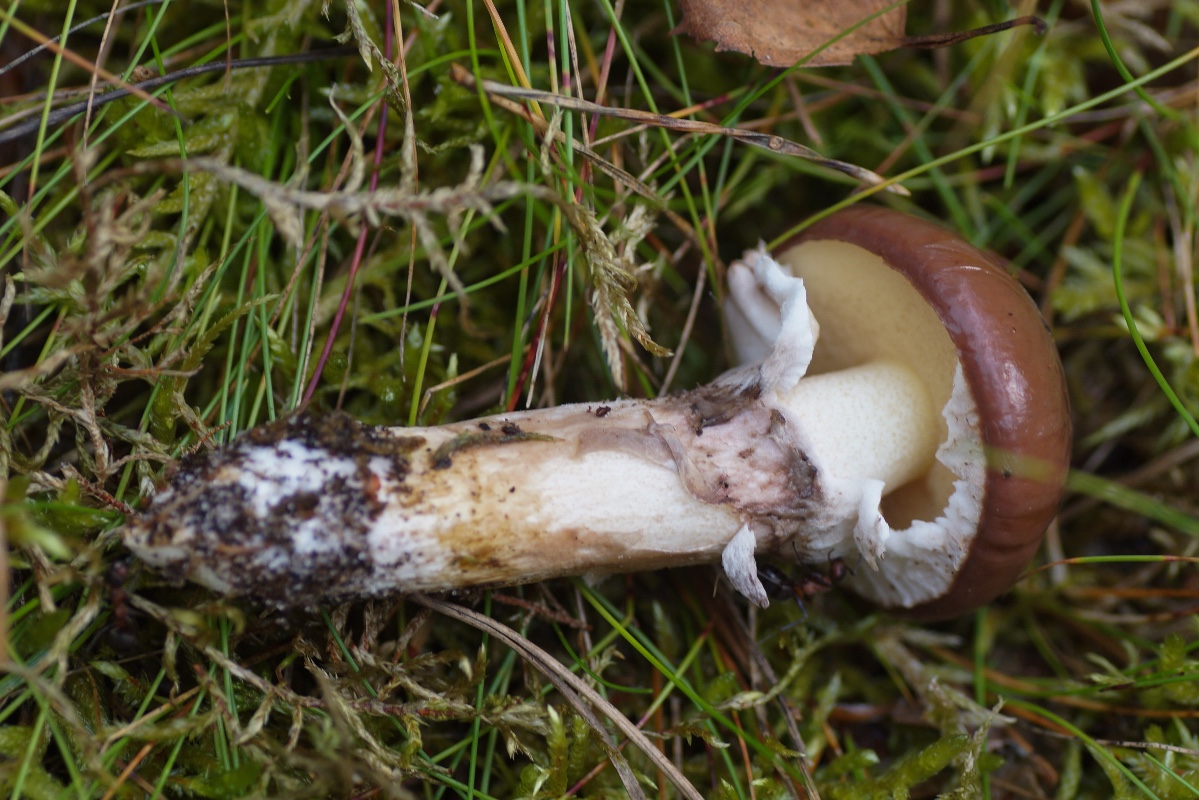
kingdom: Fungi
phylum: Basidiomycota
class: Agaricomycetes
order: Boletales
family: Suillaceae
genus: Suillus
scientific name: Suillus luteus
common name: brungul slimrørhat
